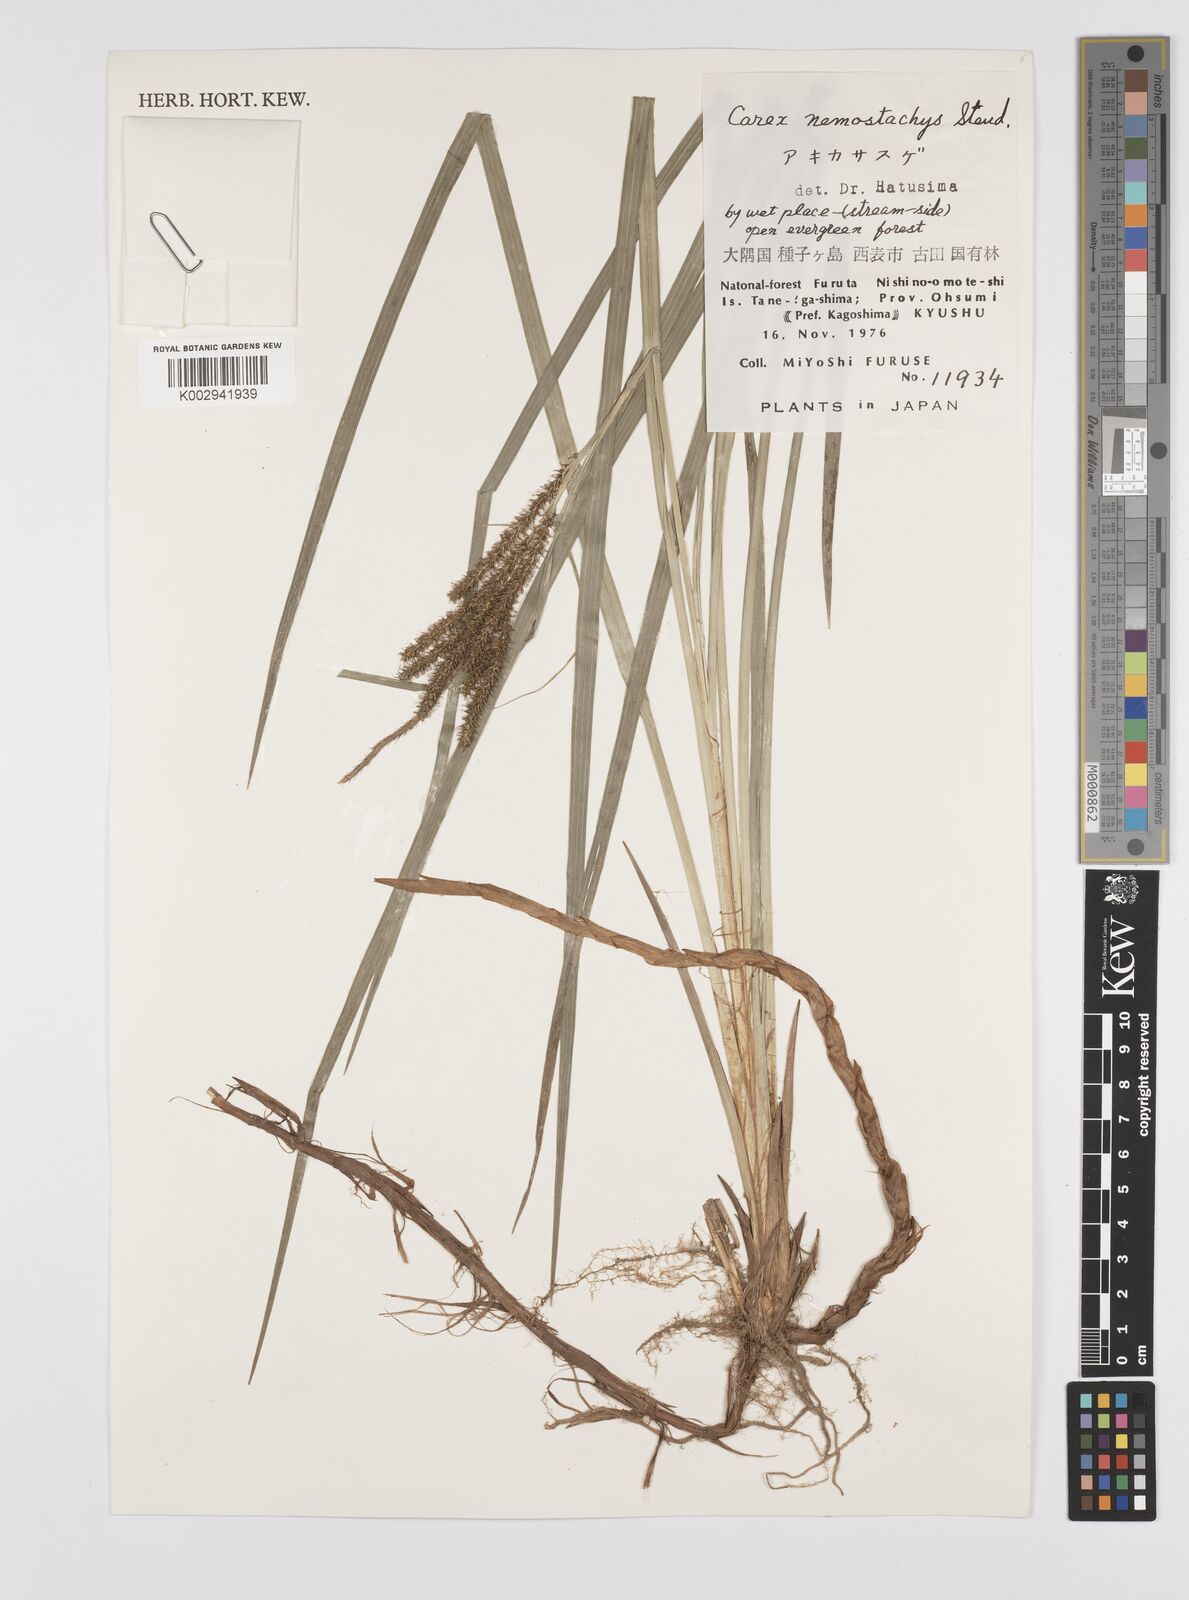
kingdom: Plantae
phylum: Tracheophyta
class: Liliopsida
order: Poales
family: Cyperaceae
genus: Carex
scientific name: Carex nemostachys
